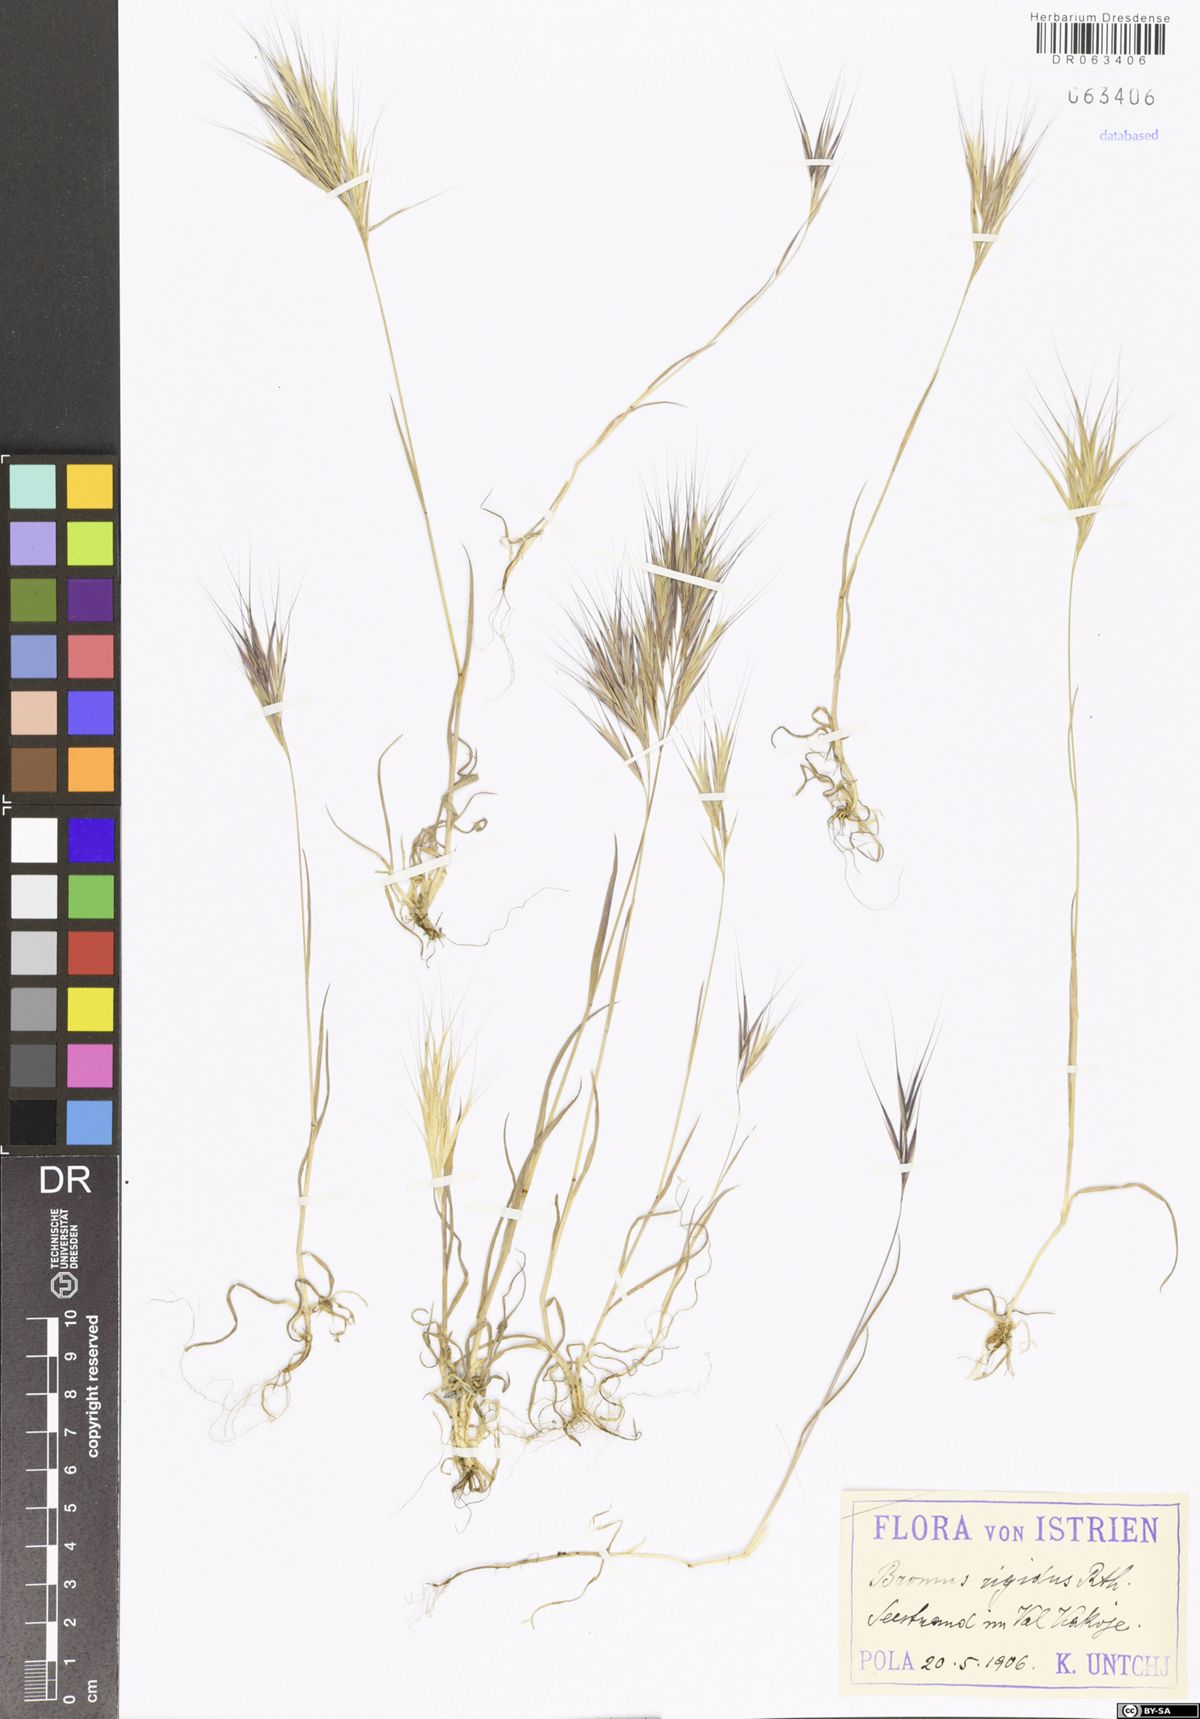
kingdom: Plantae
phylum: Tracheophyta
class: Liliopsida
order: Poales
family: Poaceae
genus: Bromus
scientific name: Bromus rigidus
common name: Ripgut brome
